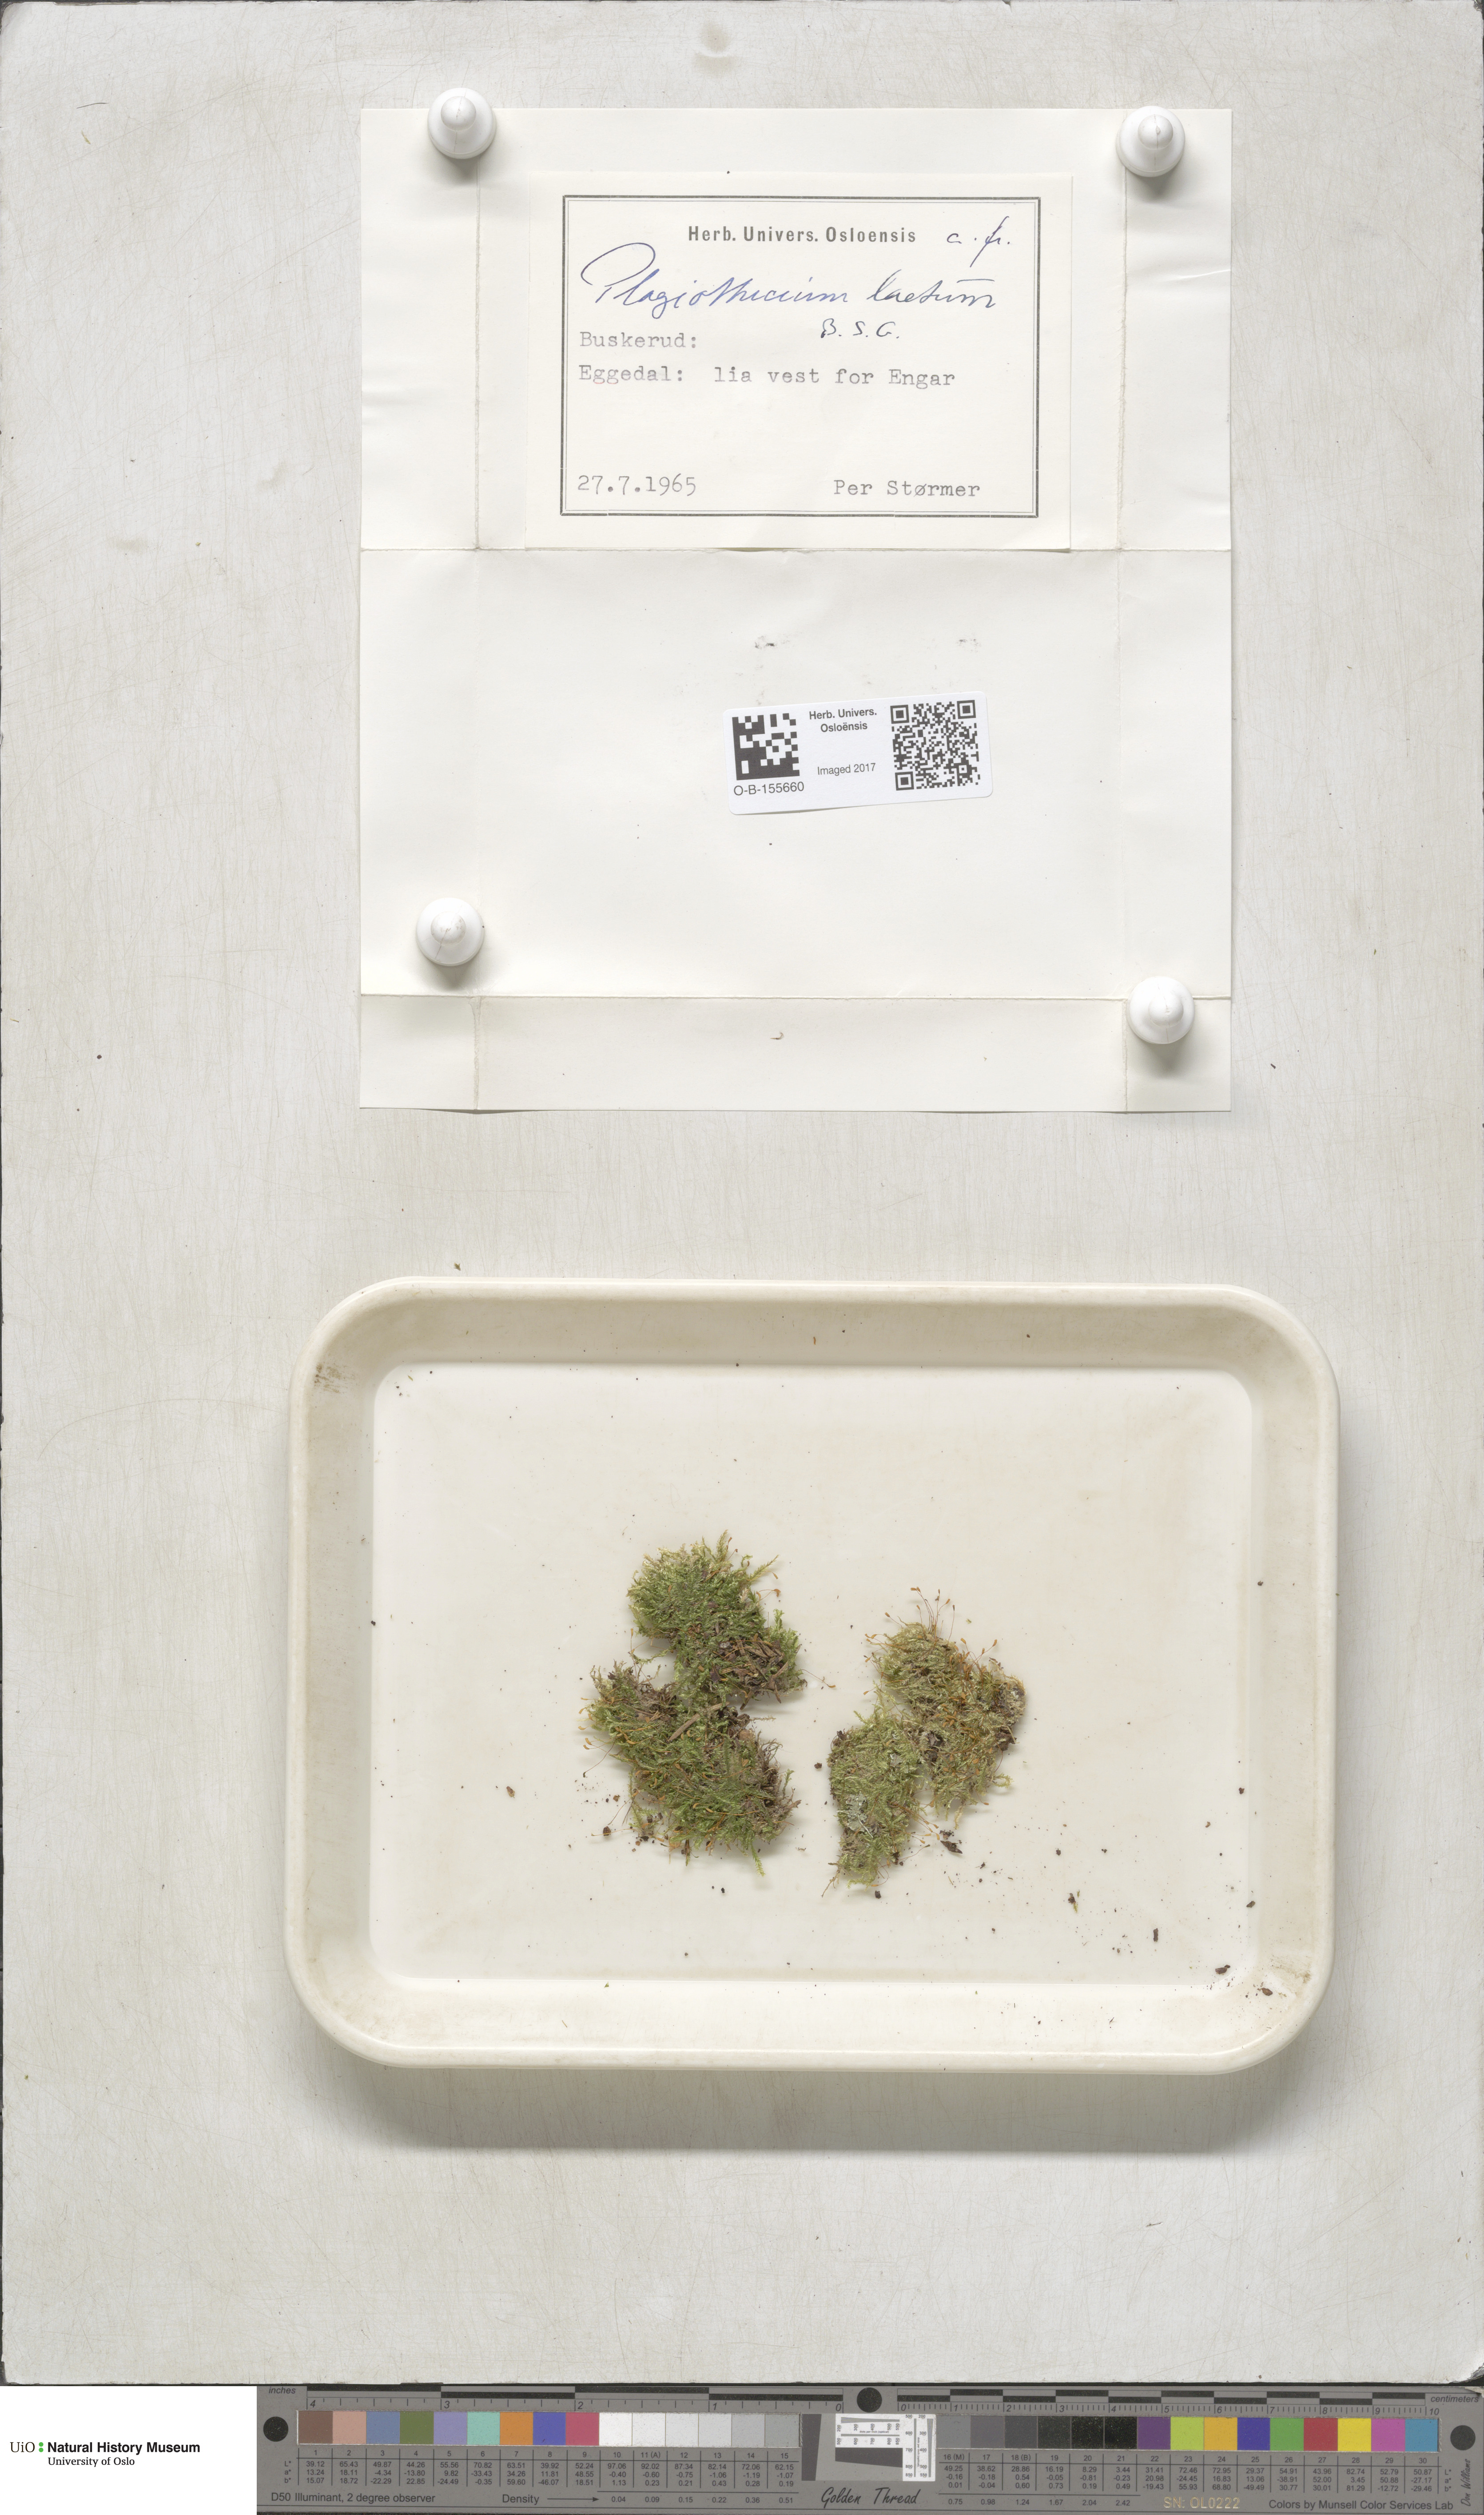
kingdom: Plantae
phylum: Bryophyta
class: Bryopsida
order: Hypnales
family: Plagiotheciaceae
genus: Plagiothecium
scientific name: Plagiothecium laetum
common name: Bright silk moss
